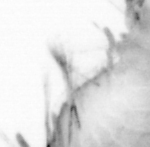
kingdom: Animalia
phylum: Annelida
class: Polychaeta
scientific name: Polychaeta
